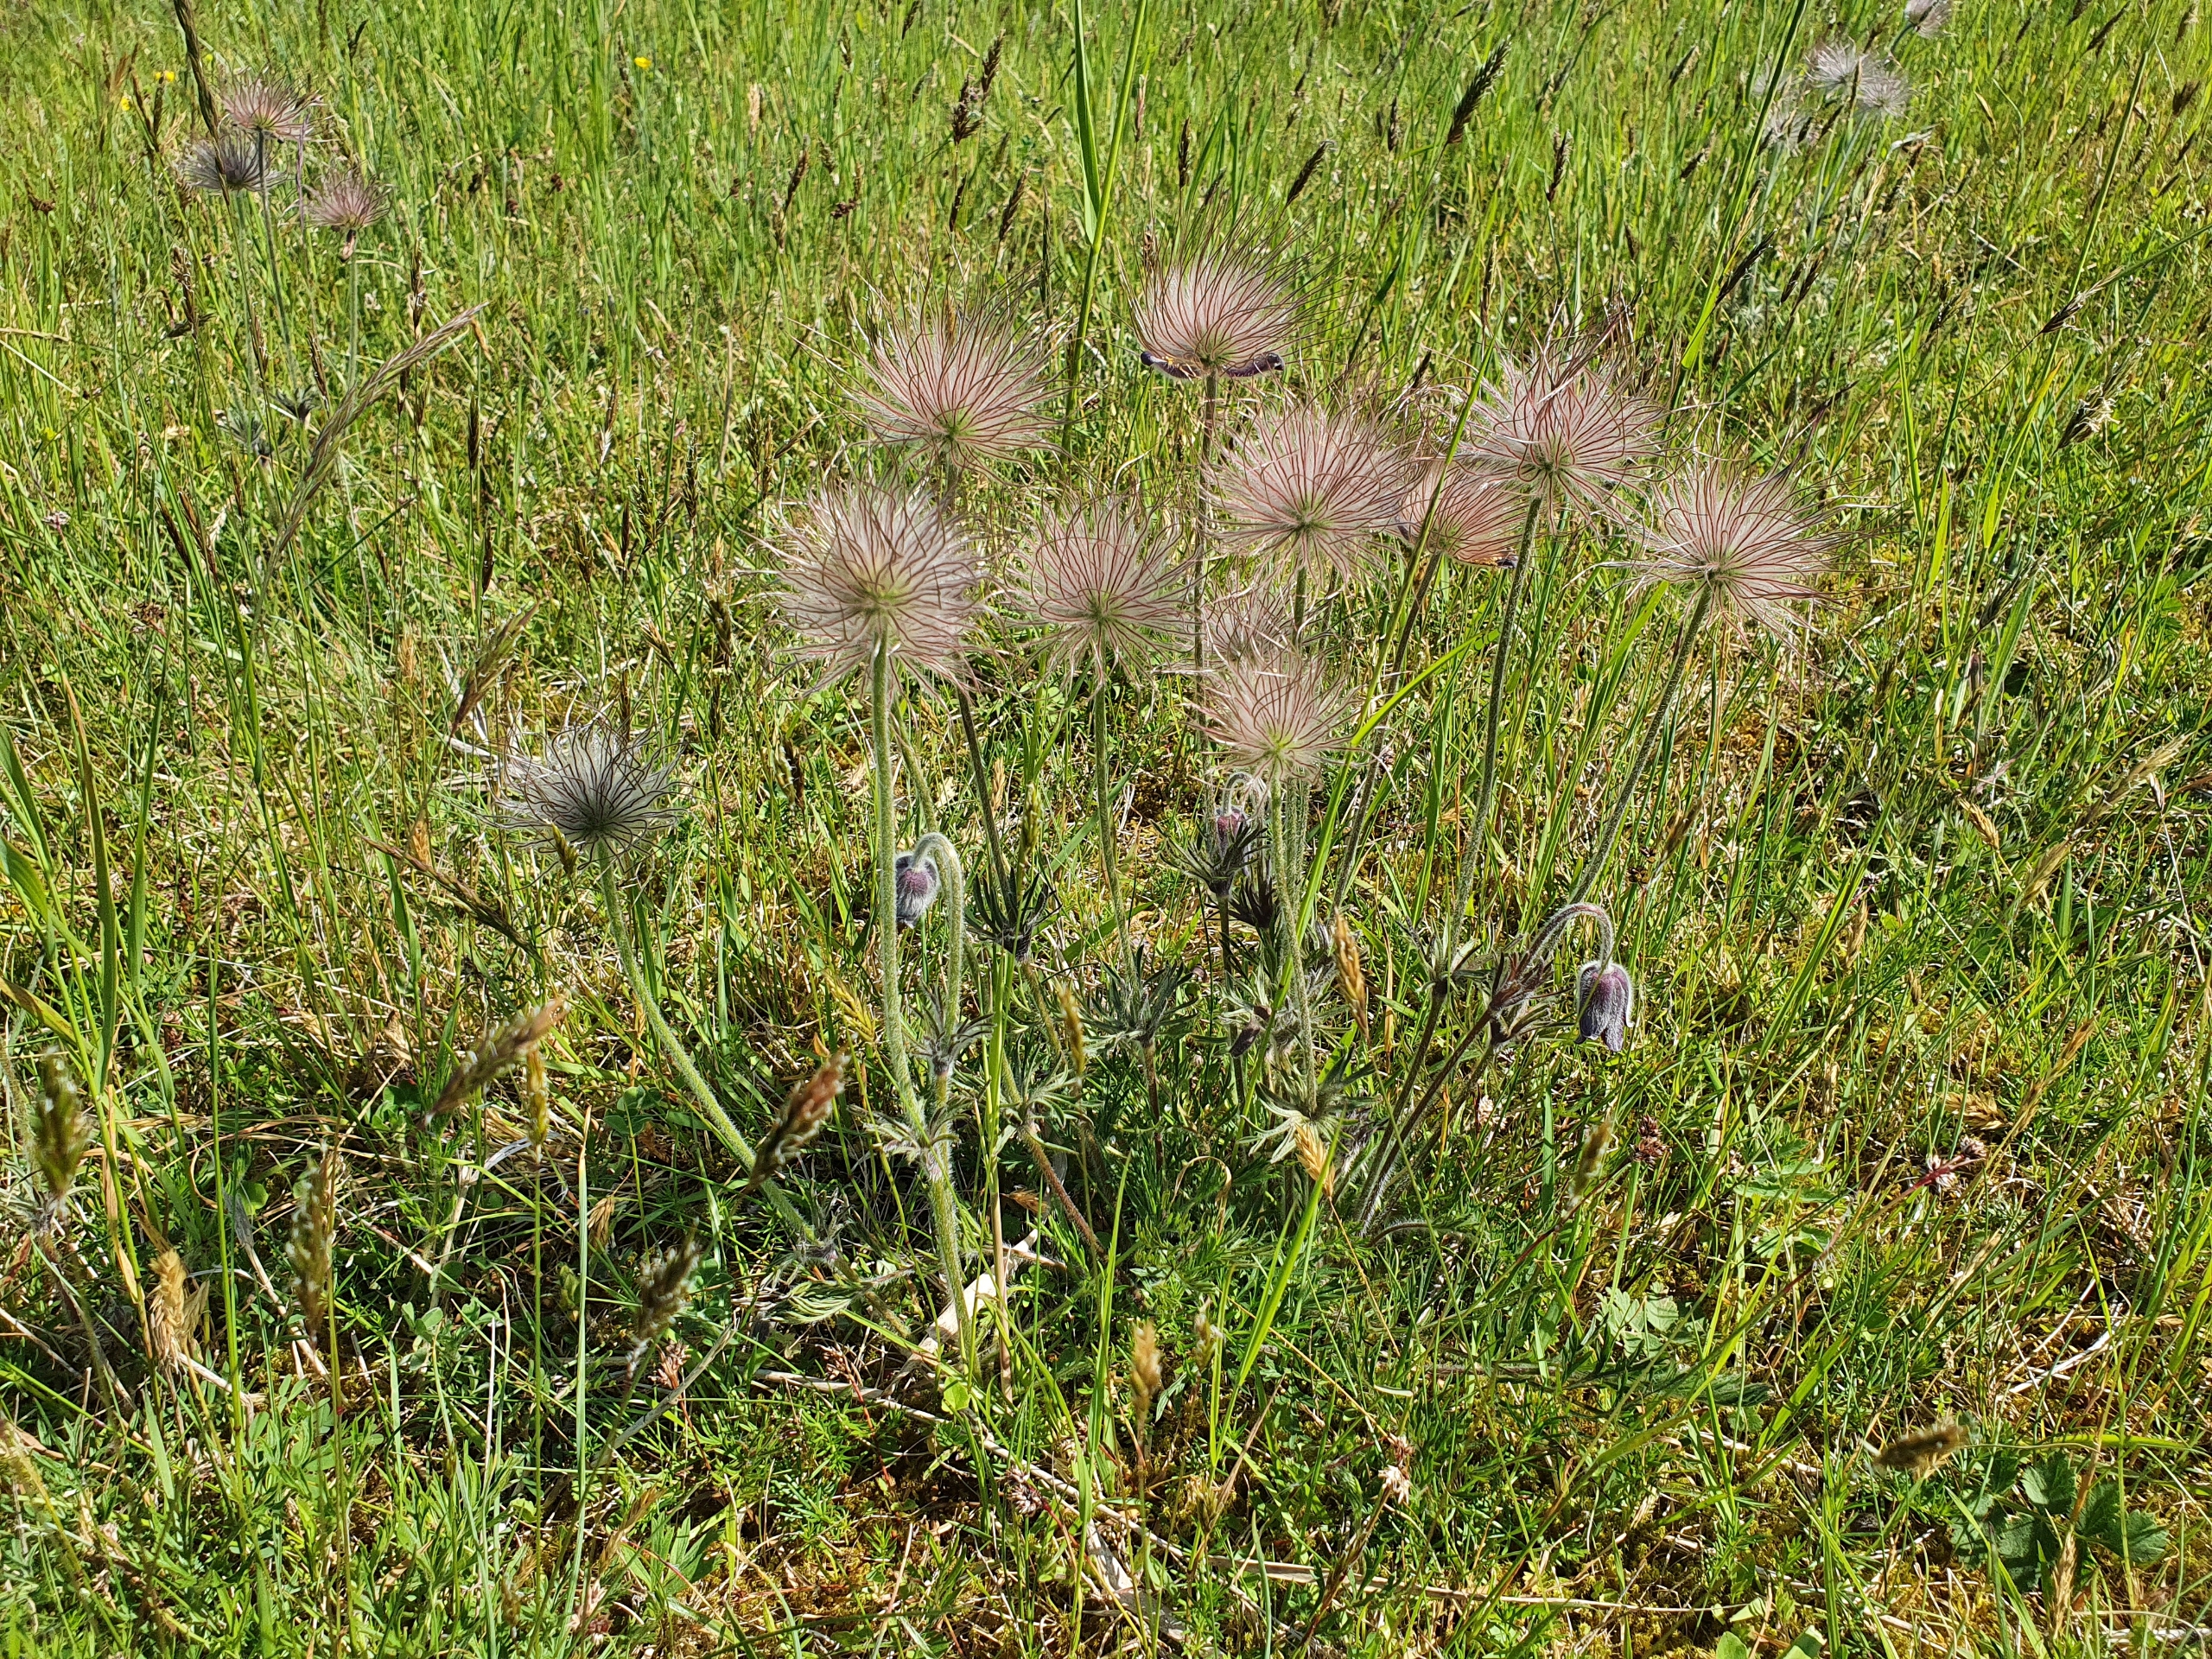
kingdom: Plantae
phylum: Tracheophyta
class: Magnoliopsida
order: Ranunculales
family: Ranunculaceae
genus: Pulsatilla
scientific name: Pulsatilla pratensis
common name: Nikkende kobjælde
